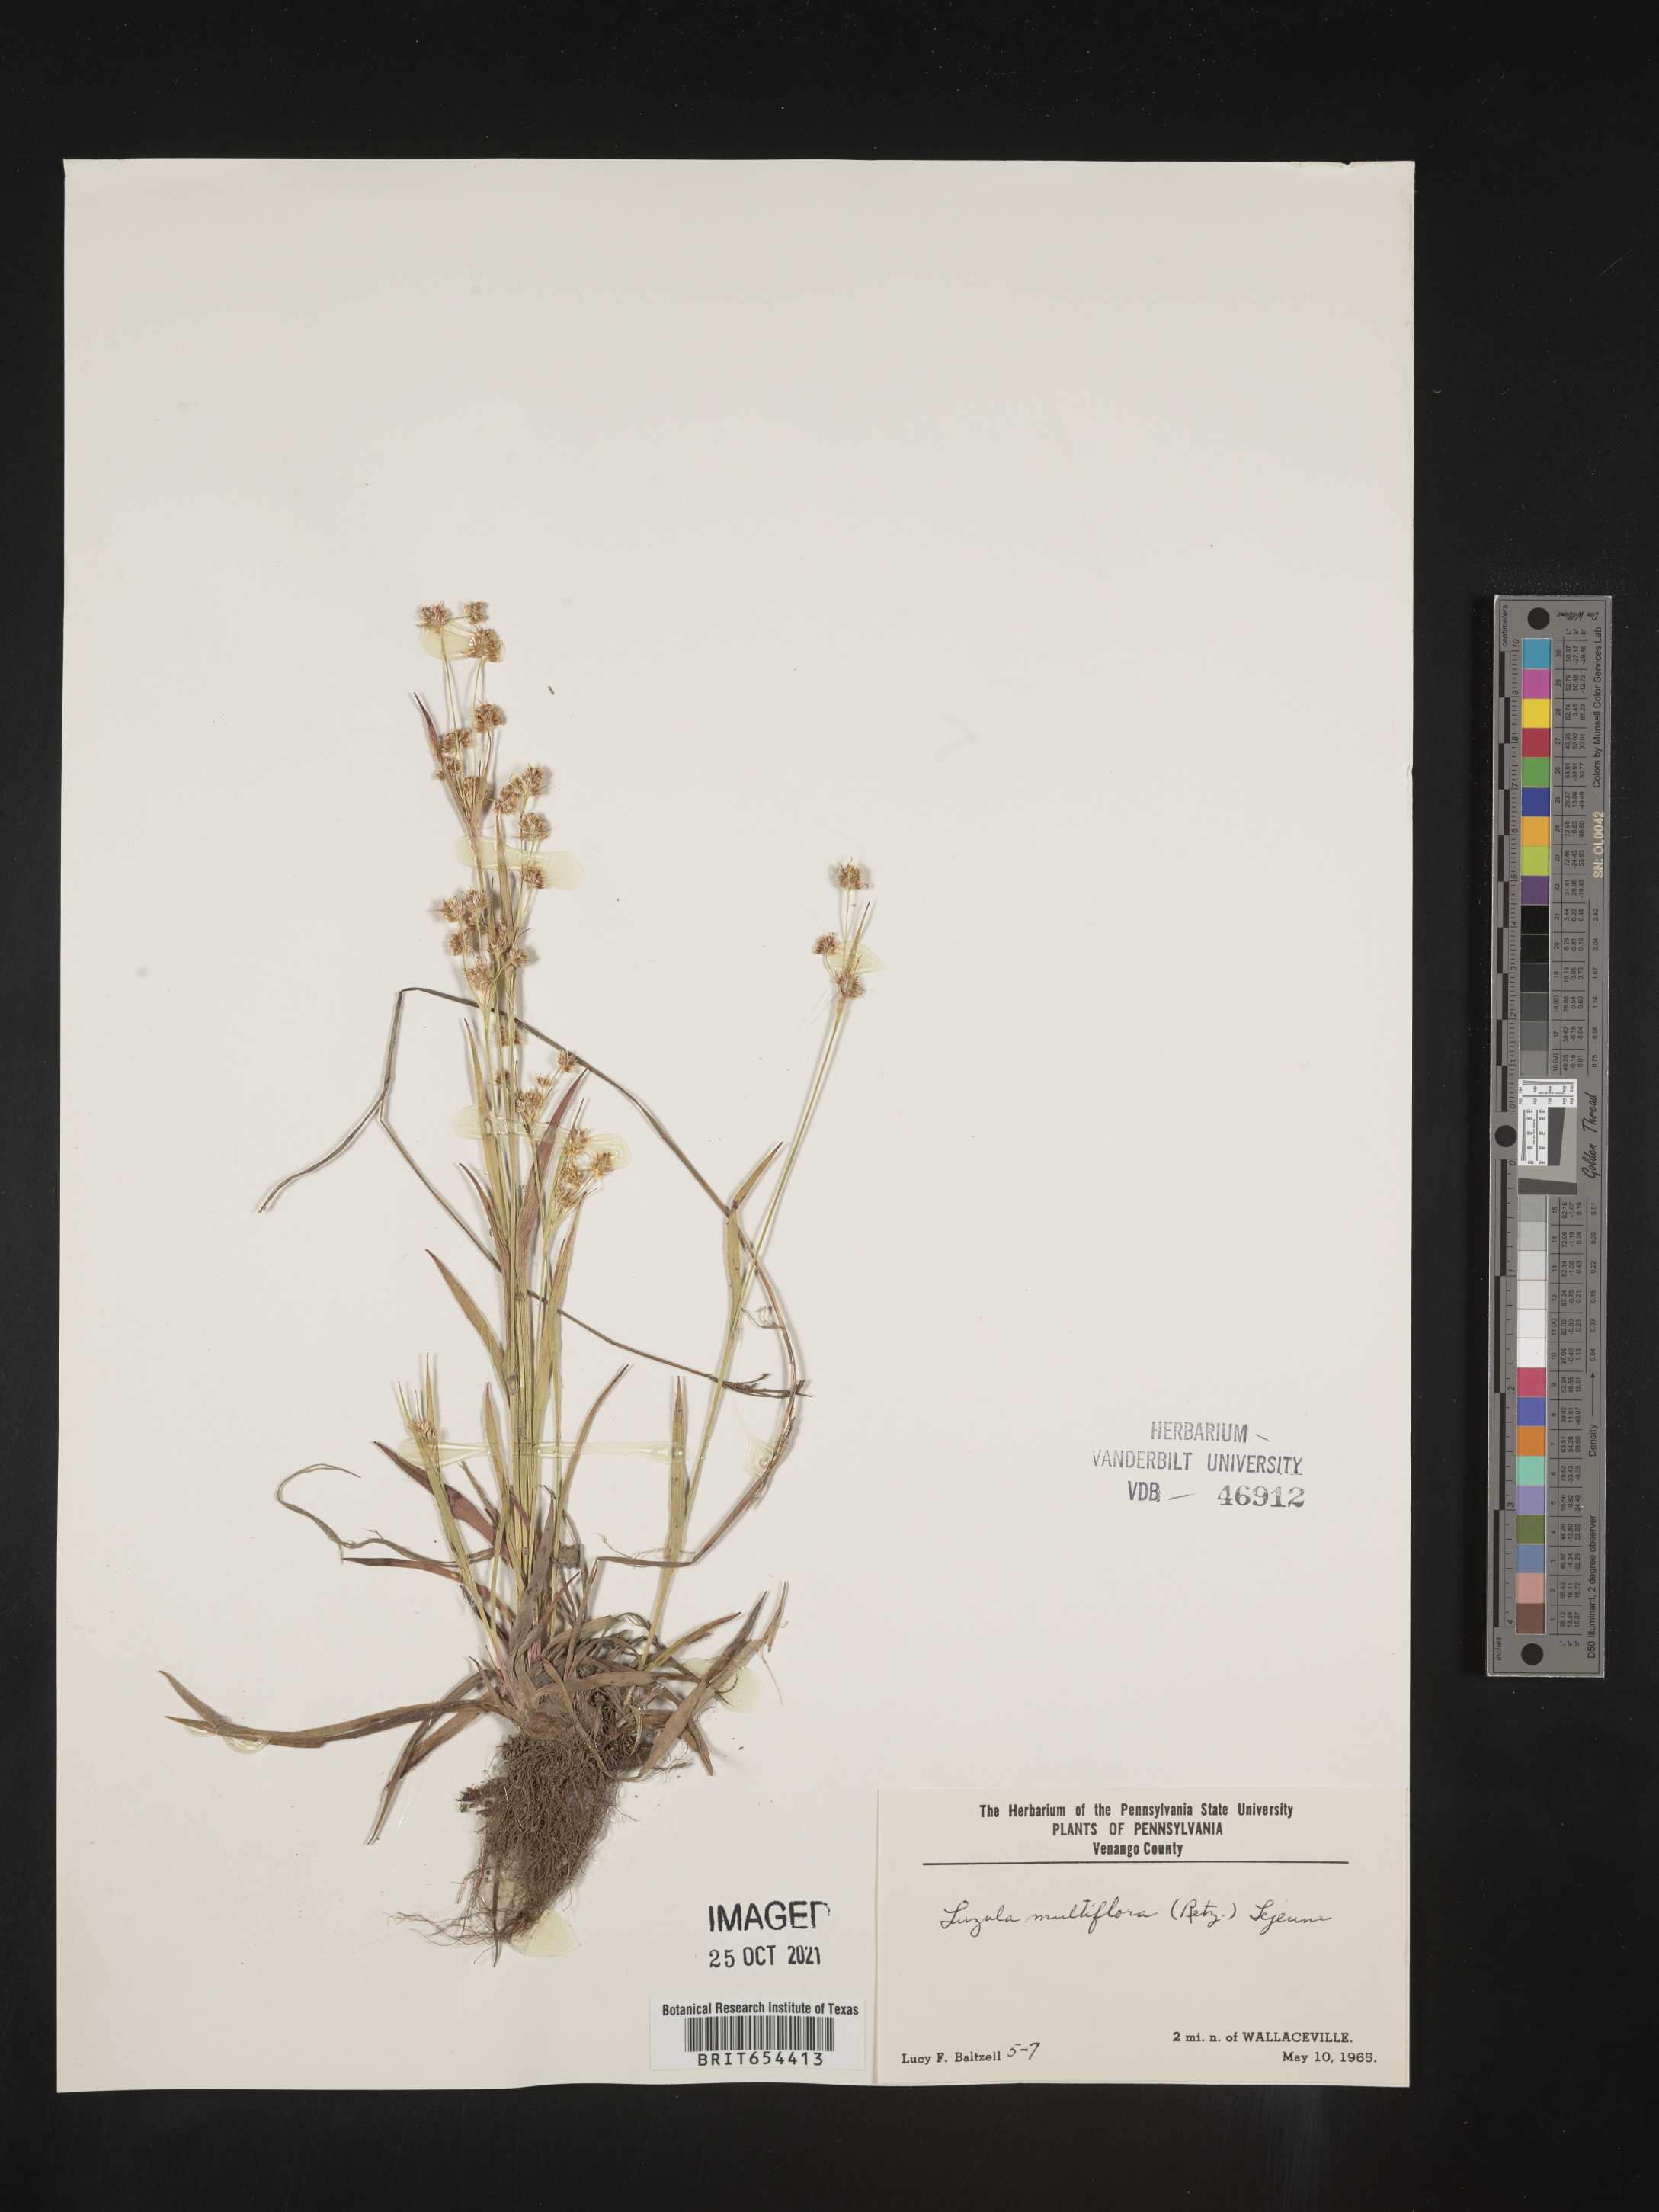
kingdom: Plantae
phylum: Tracheophyta
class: Liliopsida
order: Poales
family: Juncaceae
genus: Luzula
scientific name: Luzula multiflora
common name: Heath wood-rush
